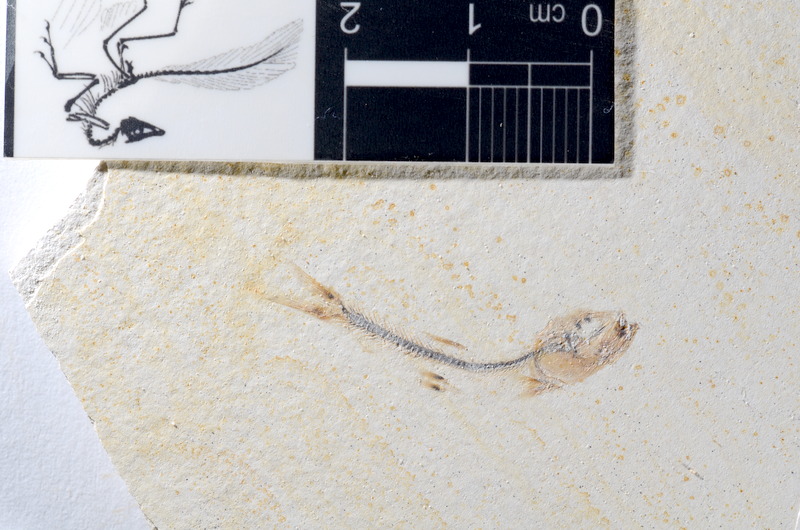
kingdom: Animalia
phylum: Chordata
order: Salmoniformes
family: Orthogonikleithridae
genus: Orthogonikleithrus
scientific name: Orthogonikleithrus hoelli
